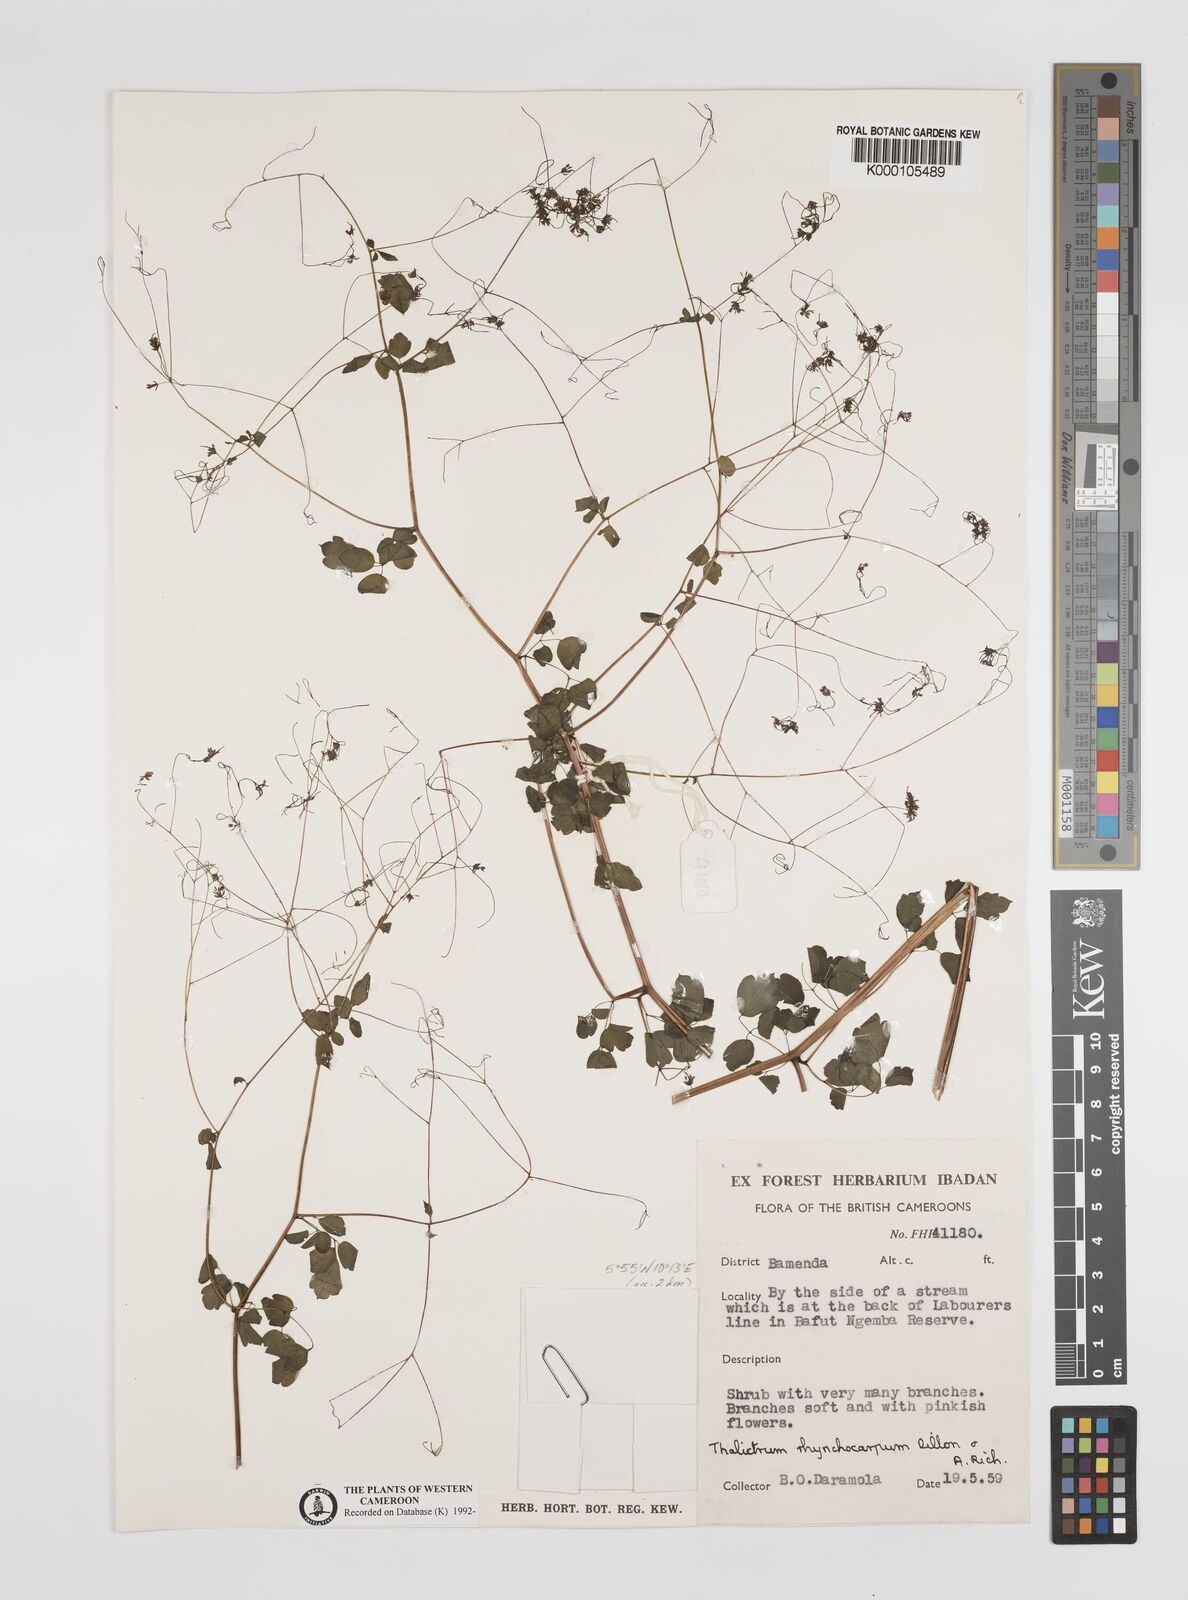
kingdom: Plantae
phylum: Tracheophyta
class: Magnoliopsida
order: Ranunculales
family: Ranunculaceae
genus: Thalictrum
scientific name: Thalictrum
